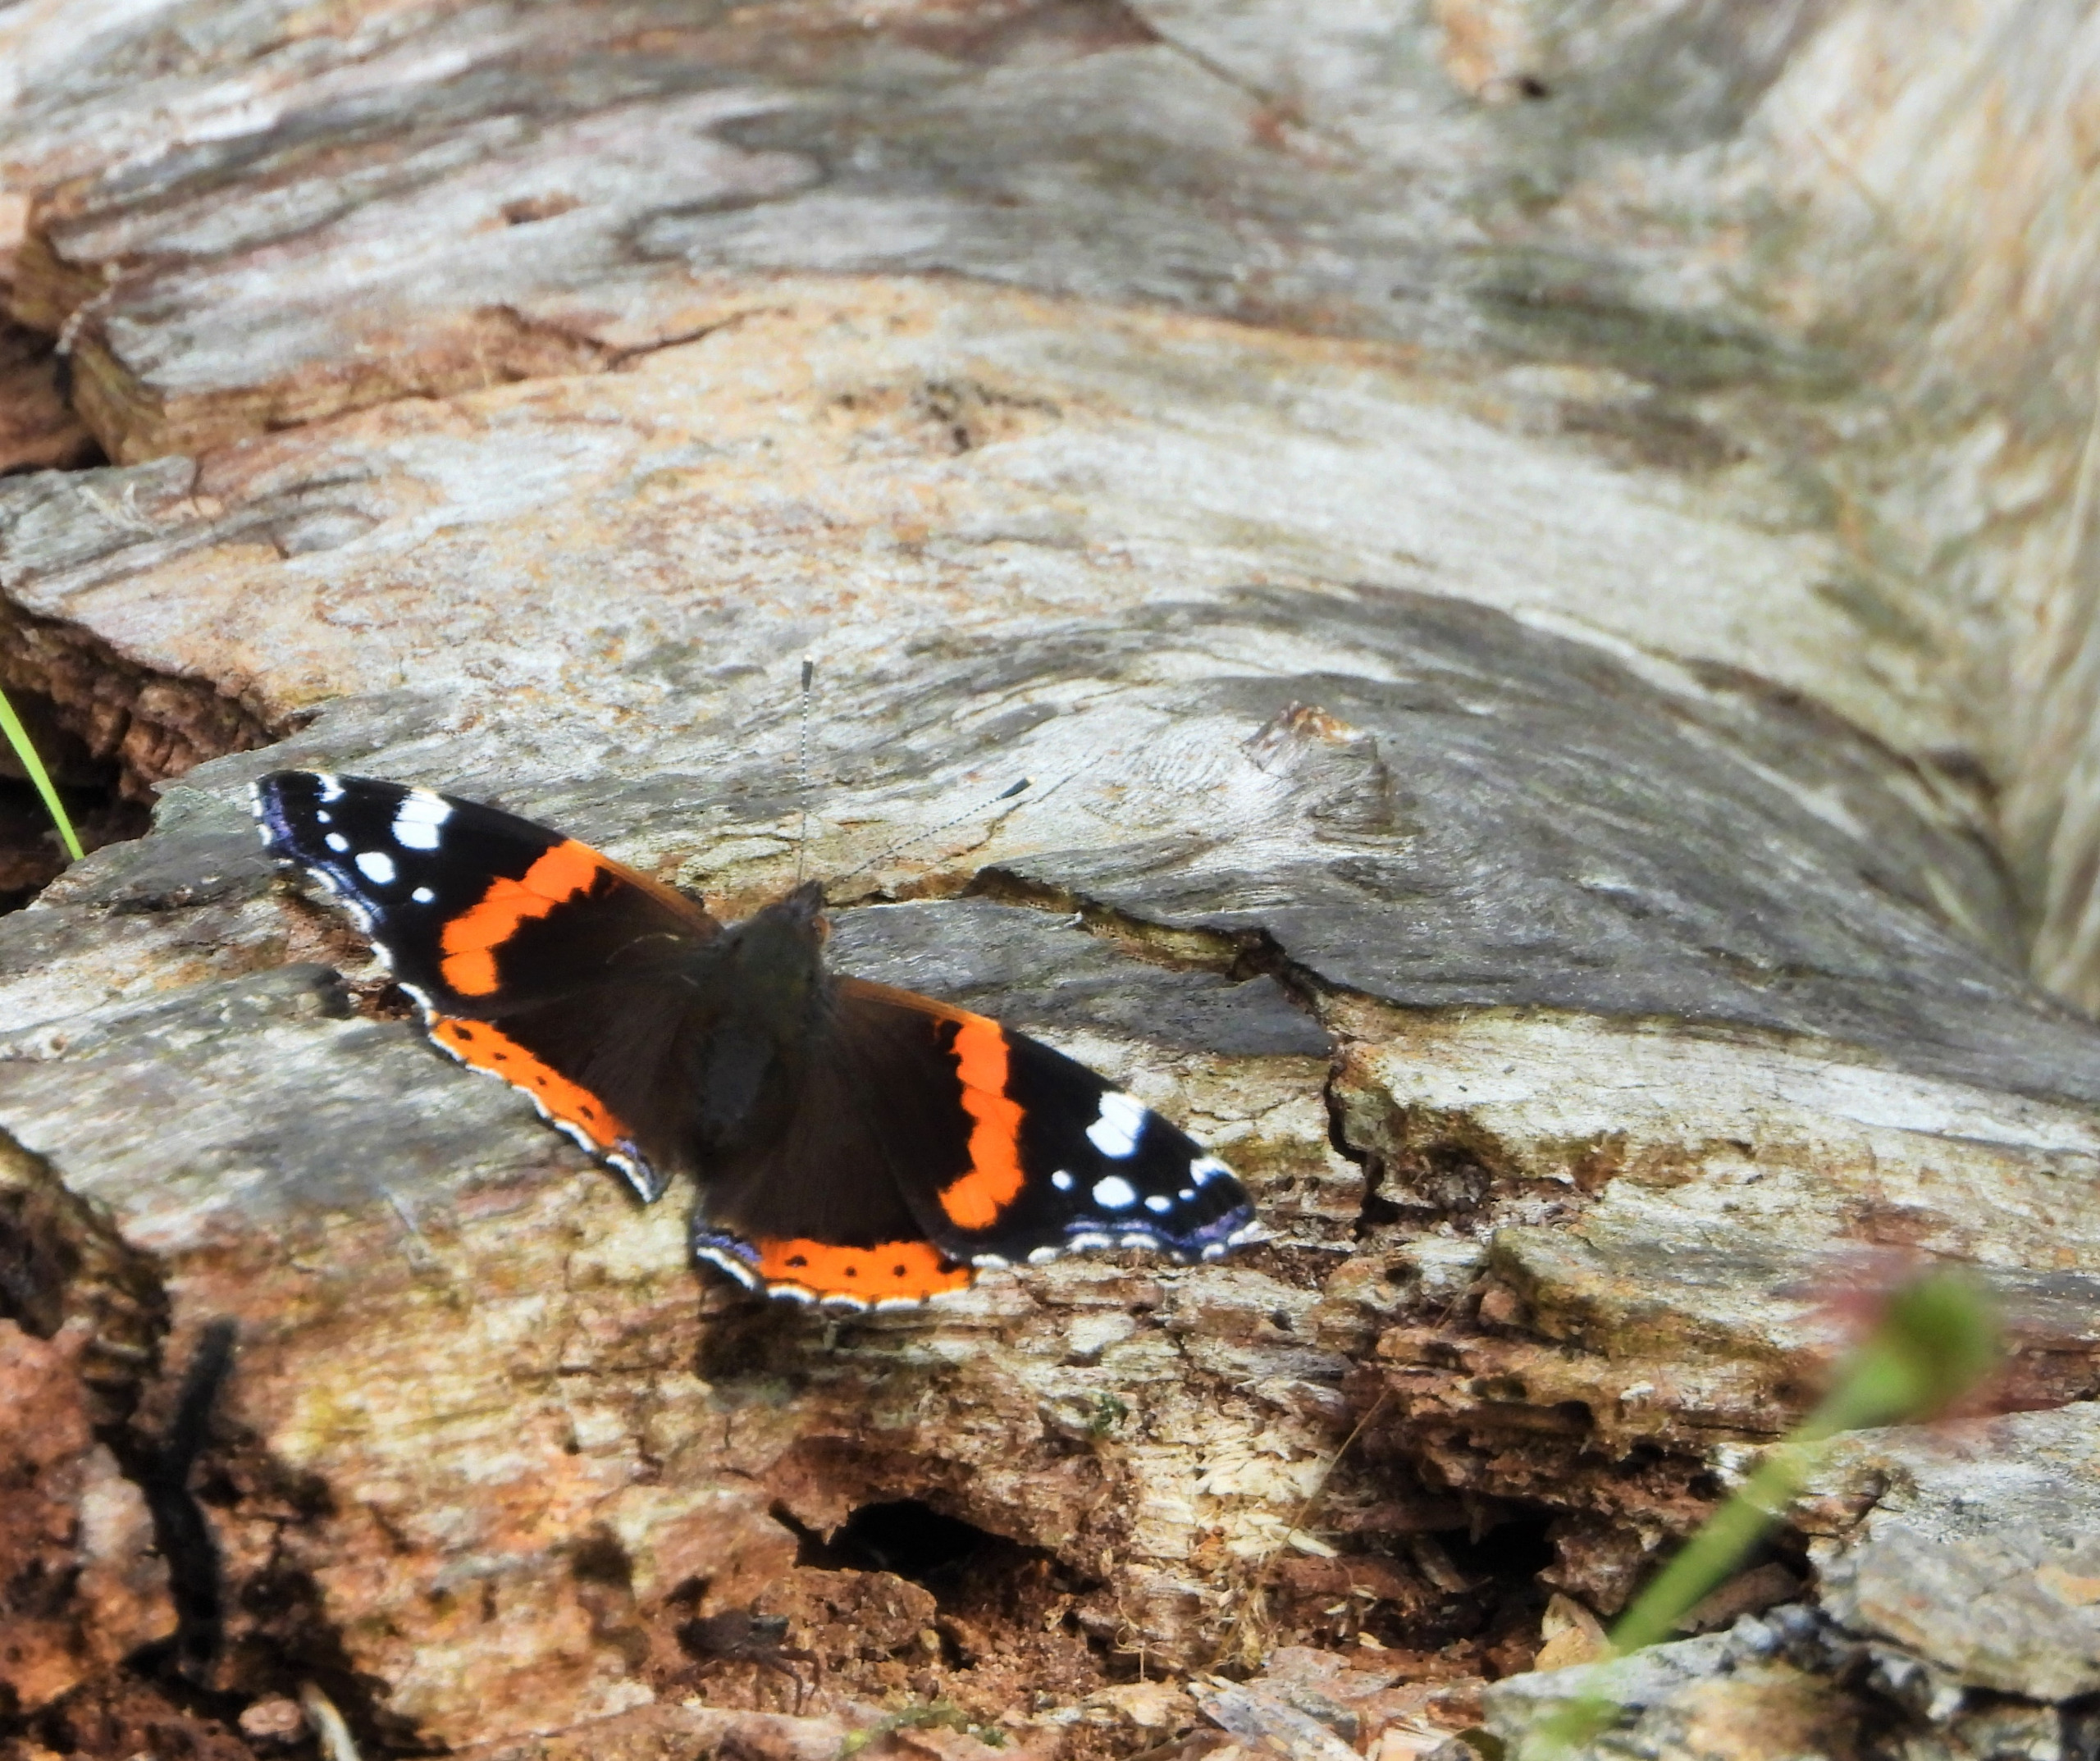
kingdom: Animalia
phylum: Arthropoda
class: Insecta
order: Lepidoptera
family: Nymphalidae
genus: Vanessa
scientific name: Vanessa atalanta
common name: Admiral
